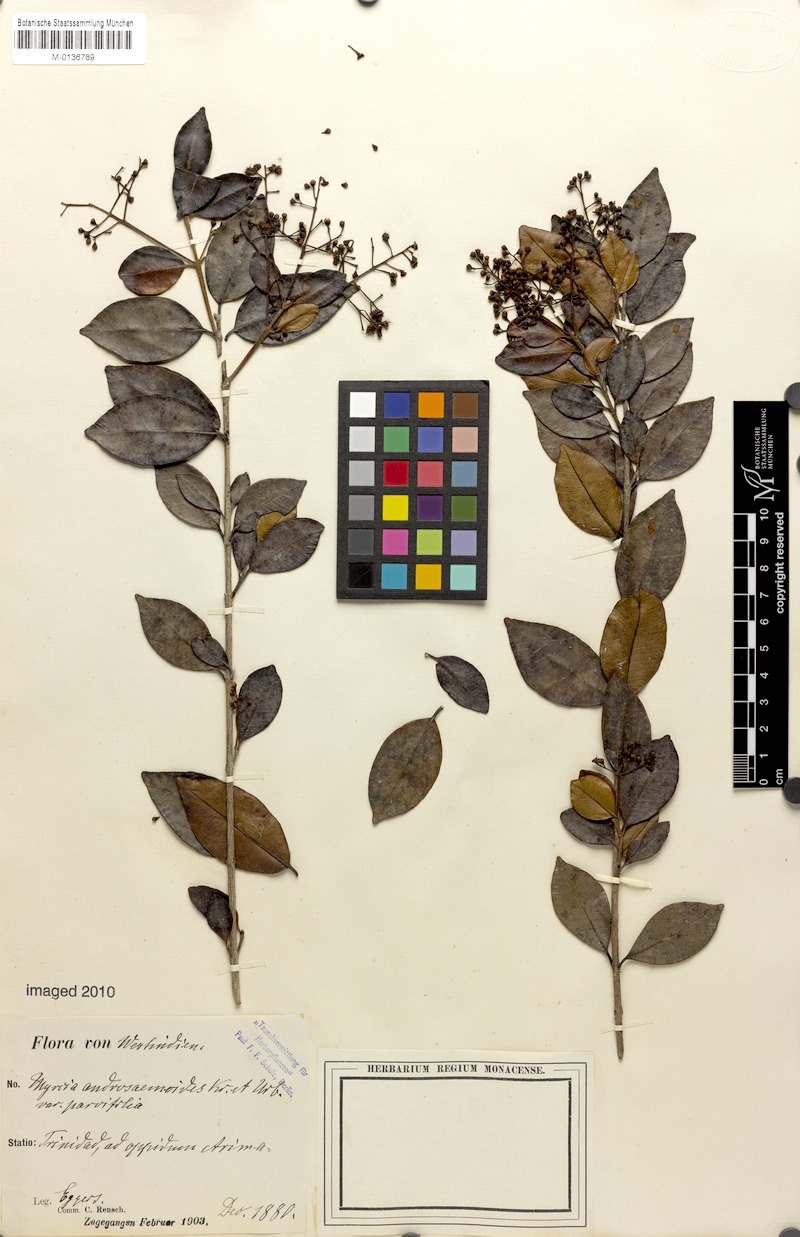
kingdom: Plantae
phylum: Tracheophyta
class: Magnoliopsida
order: Myrtales
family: Myrtaceae
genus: Myrcia
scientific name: Myrcia guianensis
